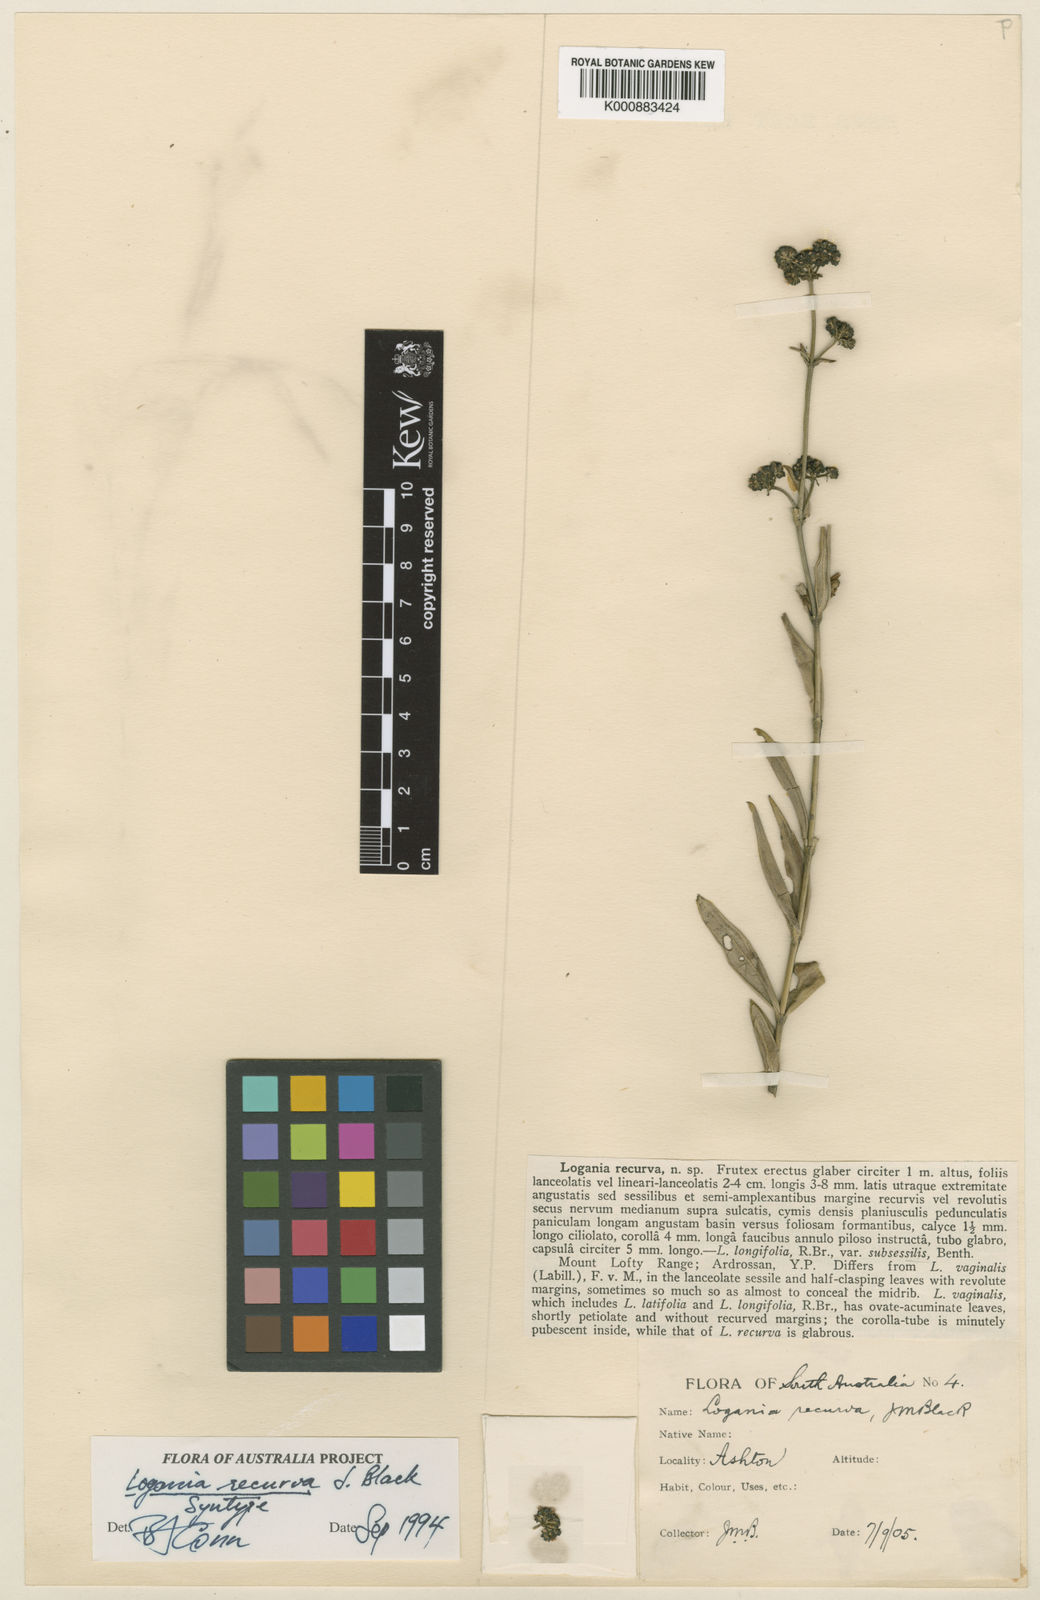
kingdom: Plantae
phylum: Tracheophyta
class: Magnoliopsida
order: Gentianales
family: Loganiaceae
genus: Logania
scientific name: Logania recurva
